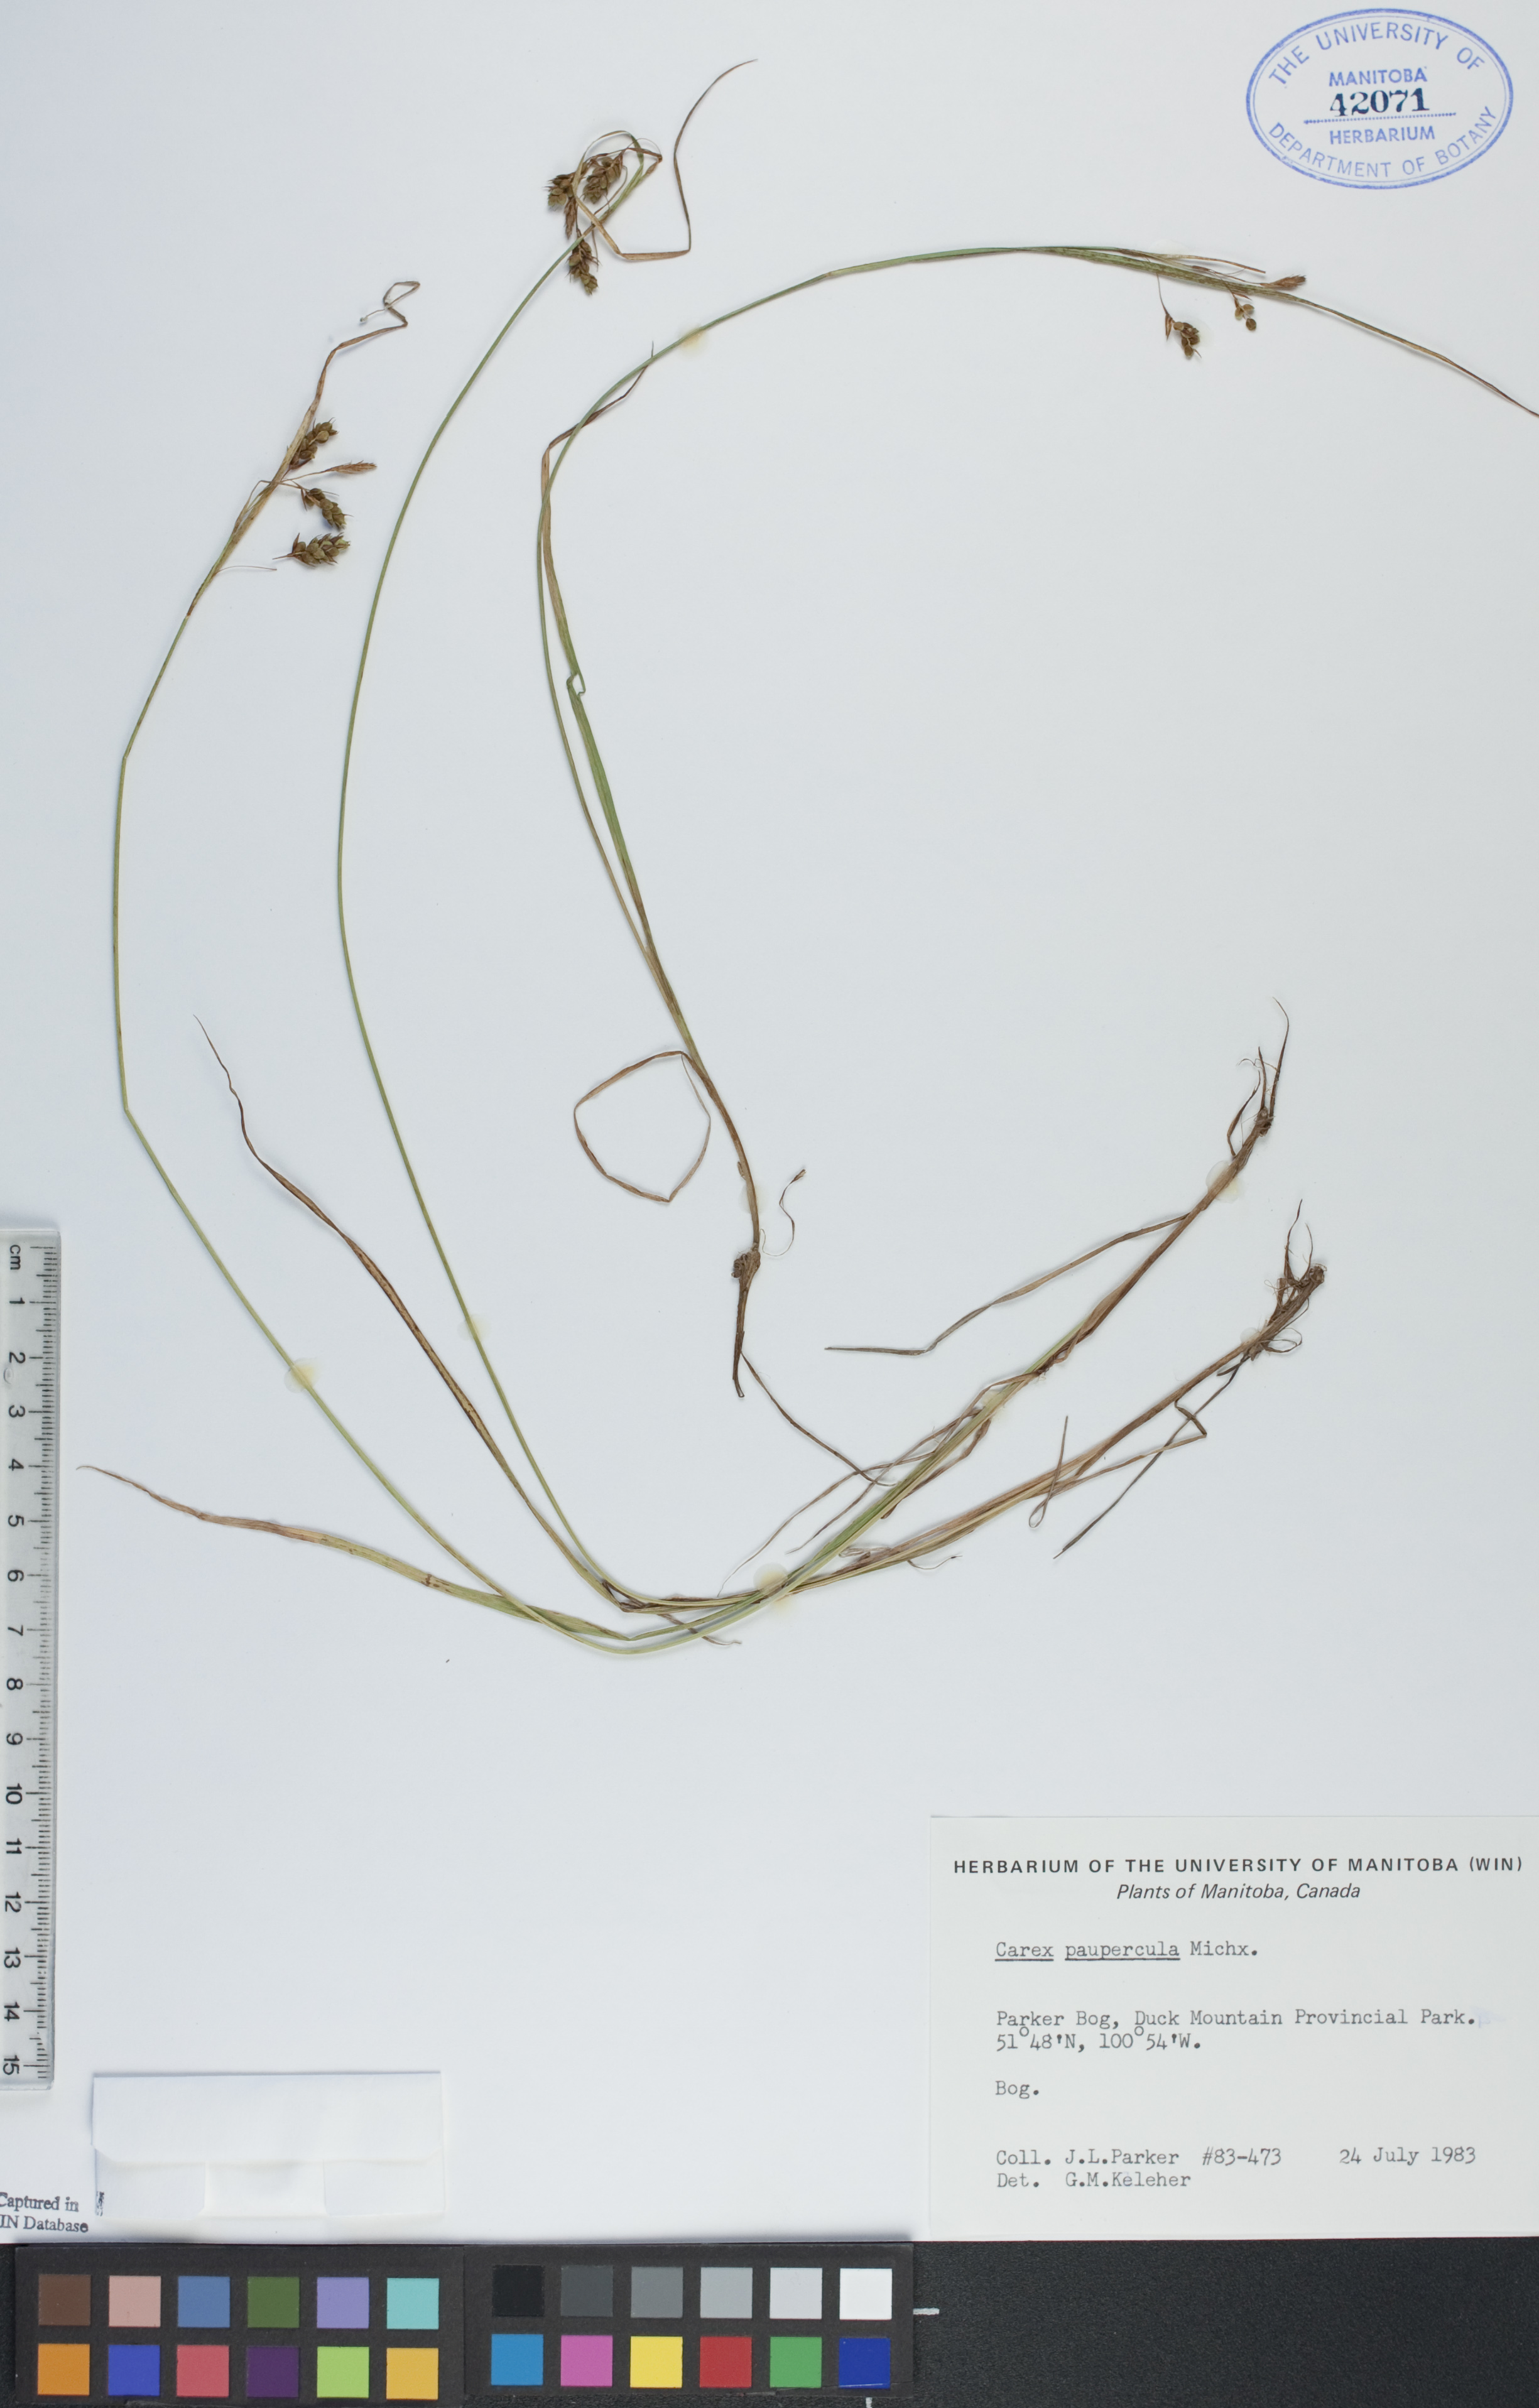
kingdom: Plantae
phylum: Tracheophyta
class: Liliopsida
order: Poales
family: Cyperaceae
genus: Carex
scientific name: Carex pauciflora
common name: Few-flowered sedge
